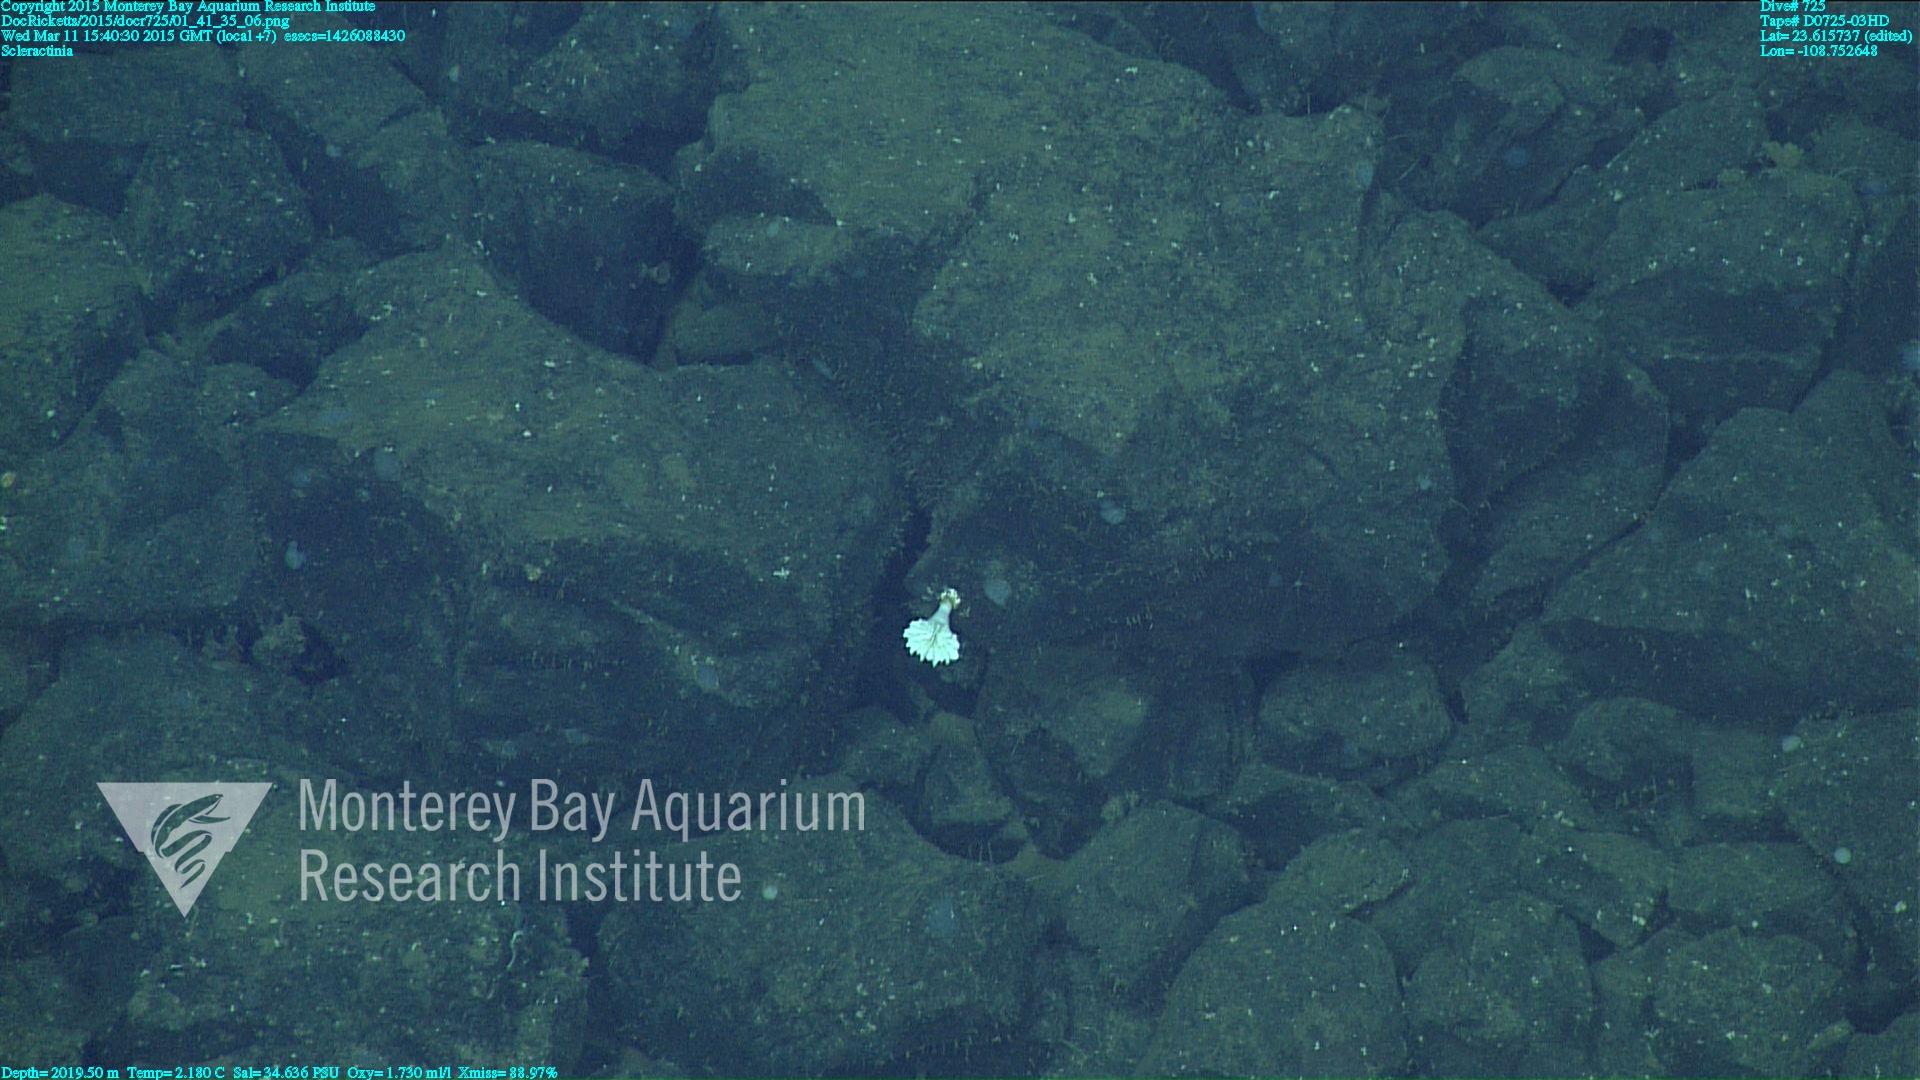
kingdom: Animalia
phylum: Cnidaria
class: Anthozoa
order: Scleractinia
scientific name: Scleractinia
